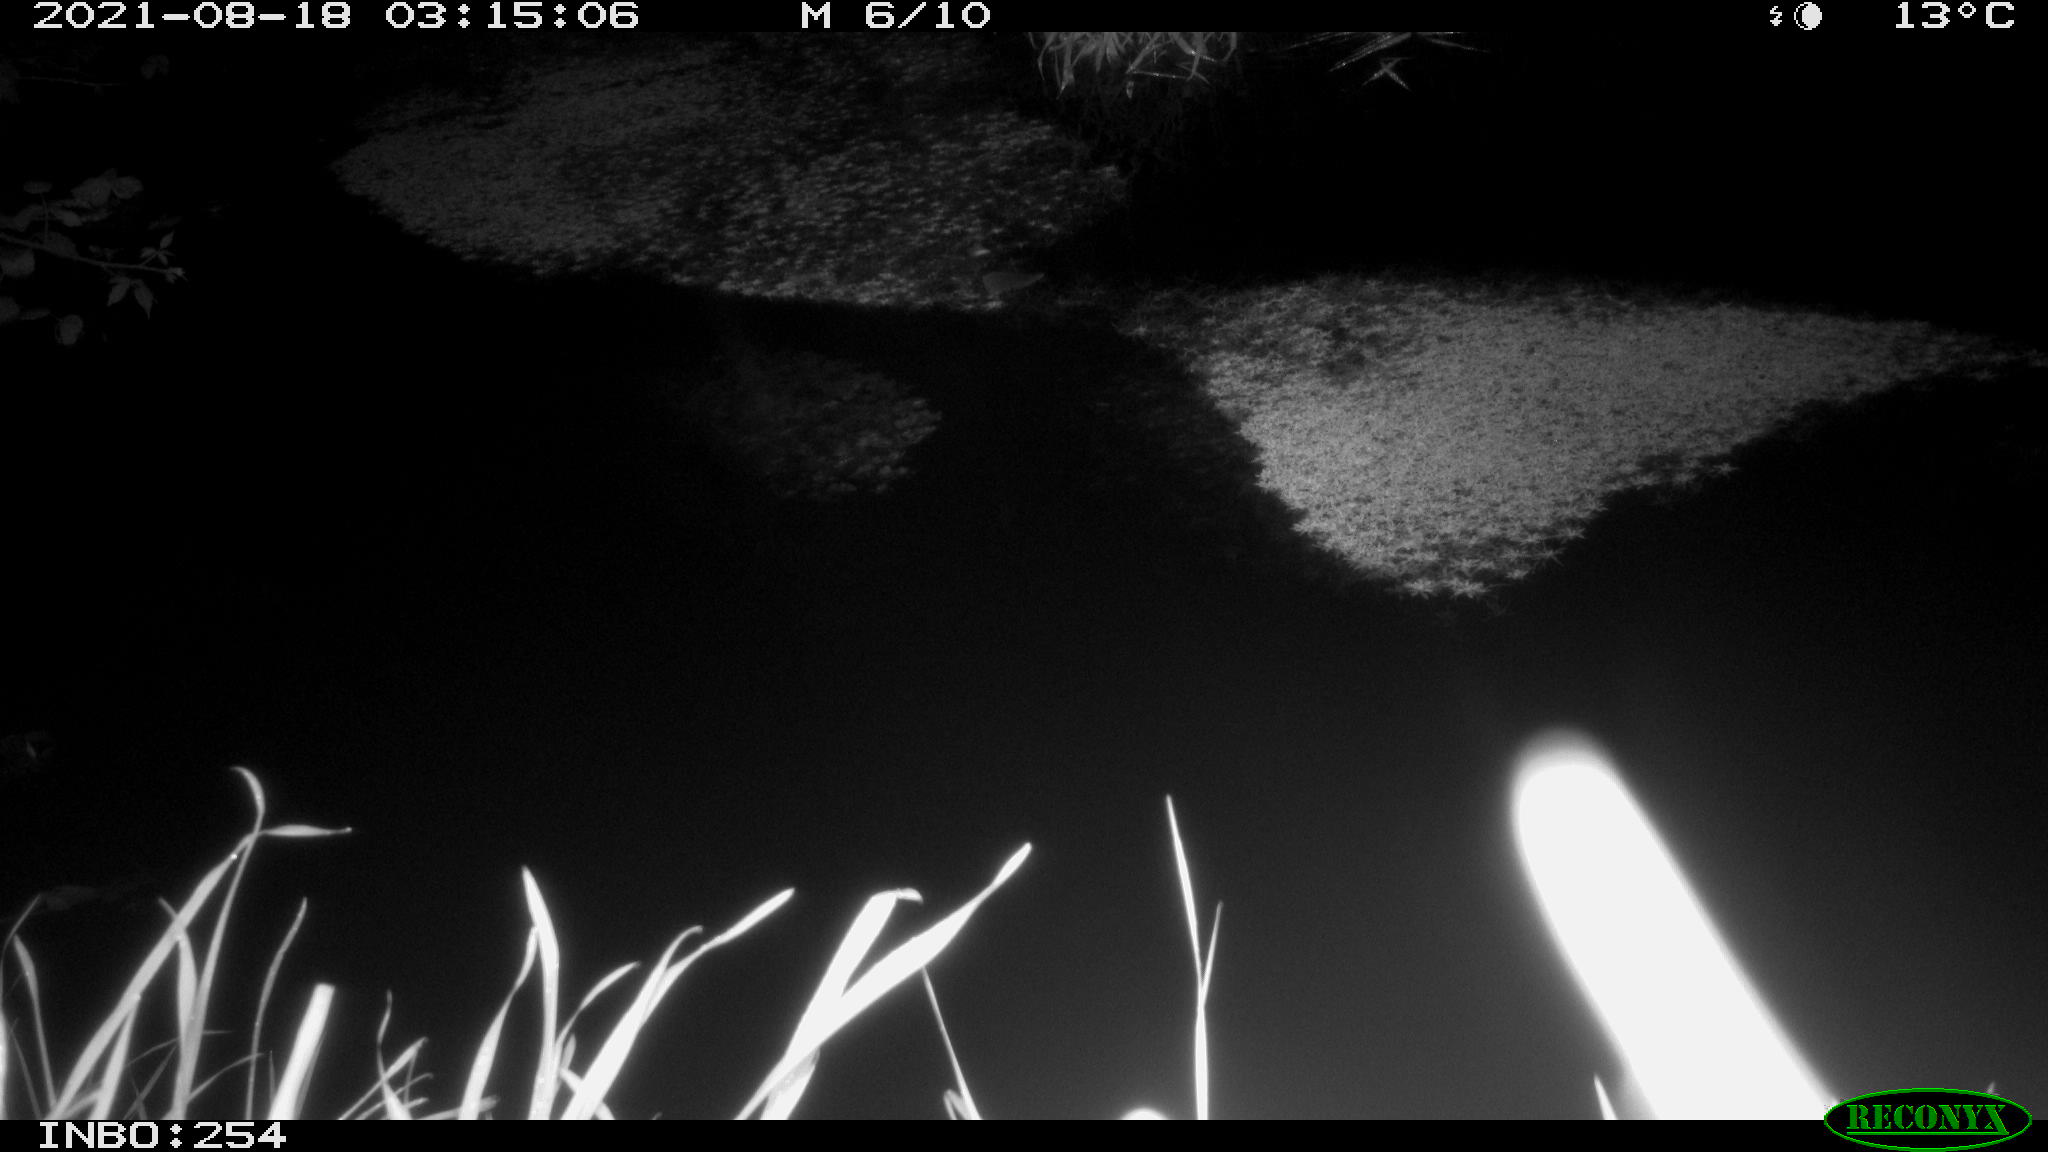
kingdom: Animalia
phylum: Chordata
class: Aves
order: Anseriformes
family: Anatidae
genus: Anas
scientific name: Anas platyrhynchos
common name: Mallard
